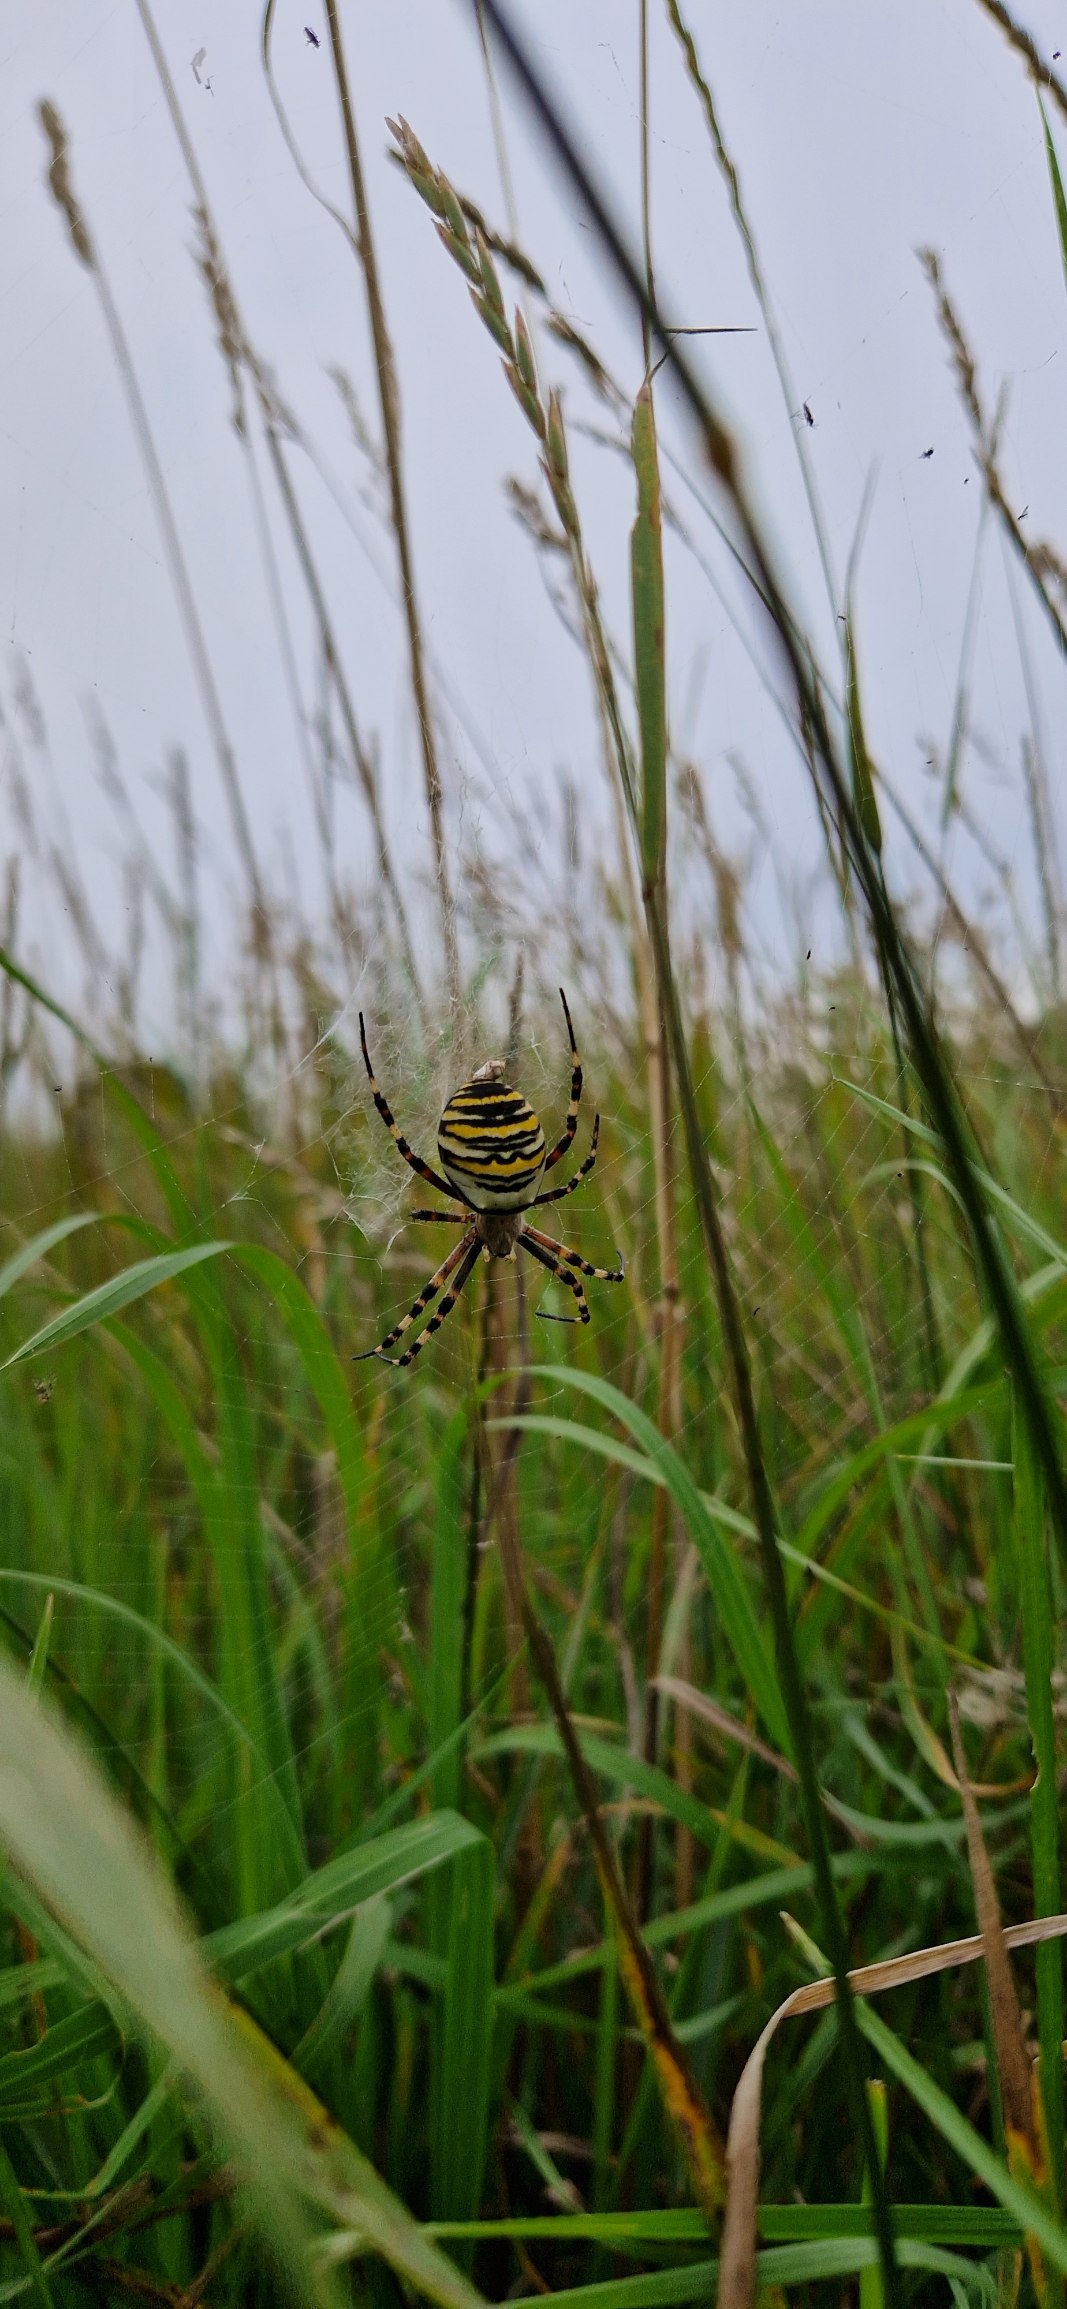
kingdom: Animalia
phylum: Arthropoda
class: Arachnida
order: Araneae
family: Araneidae
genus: Argiope
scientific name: Argiope bruennichi
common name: Hvepseedderkop
